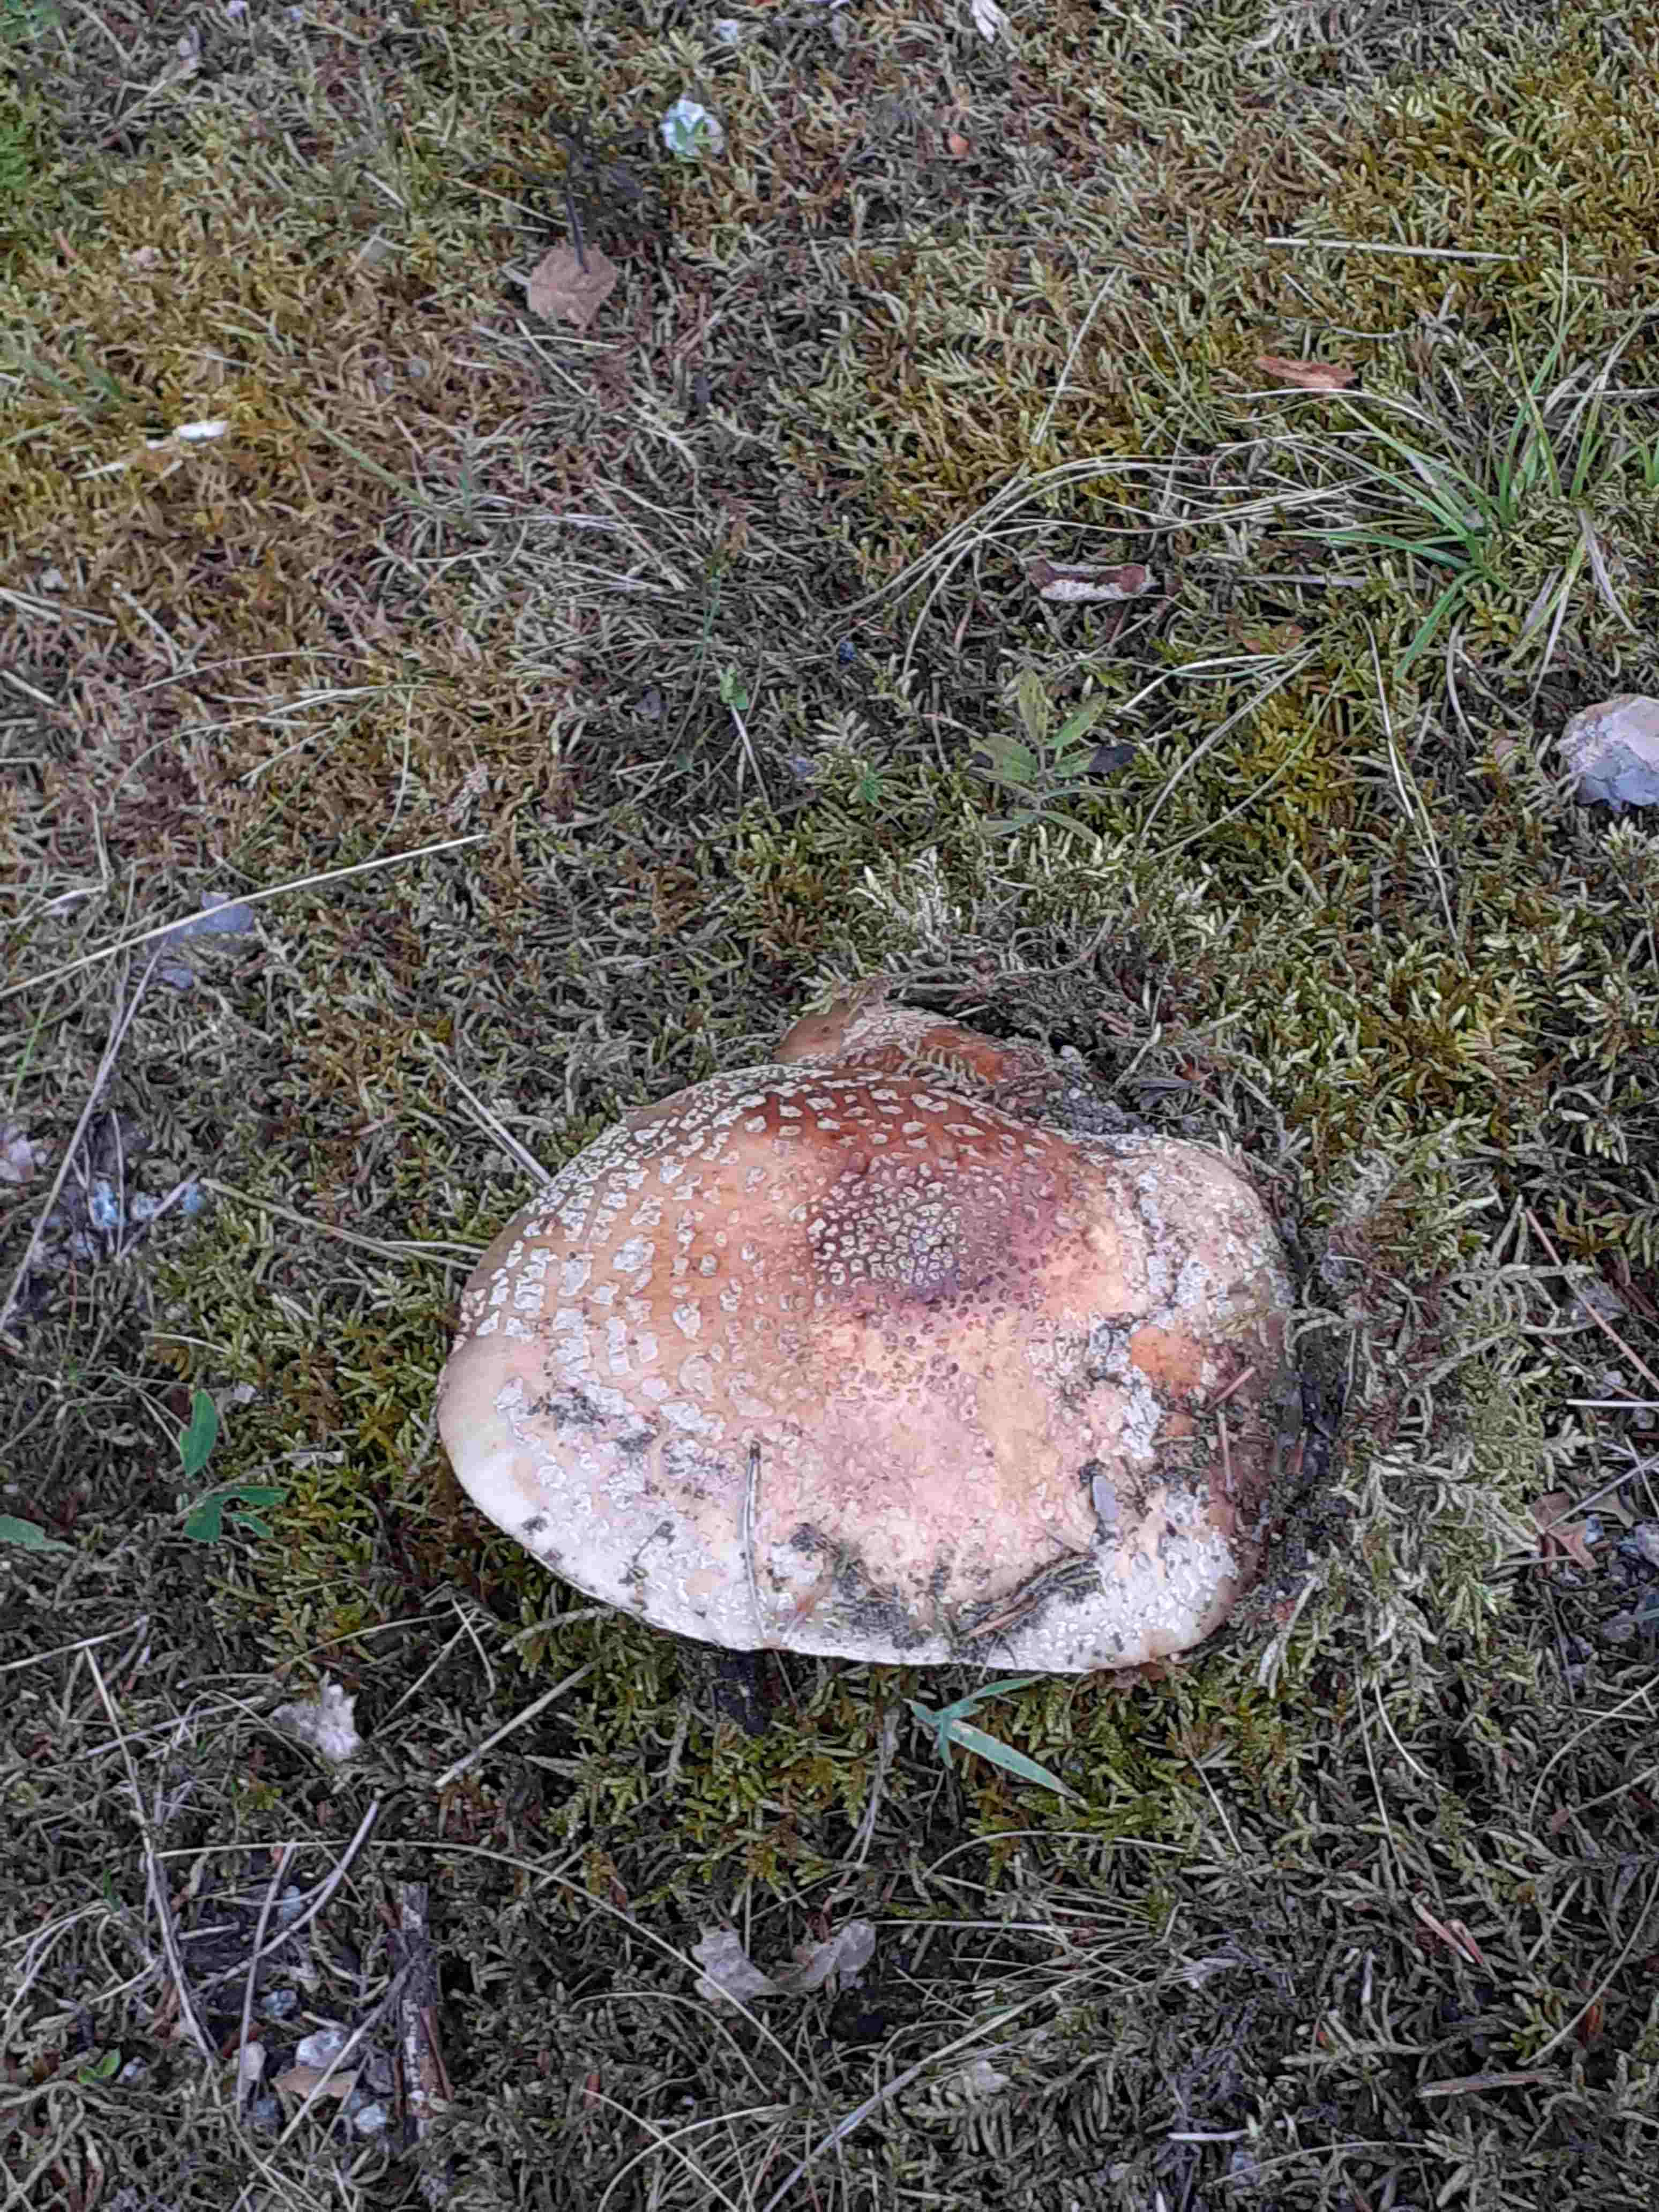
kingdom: Fungi
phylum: Basidiomycota
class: Agaricomycetes
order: Agaricales
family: Amanitaceae
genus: Amanita
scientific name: Amanita rubescens
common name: rødmende fluesvamp
